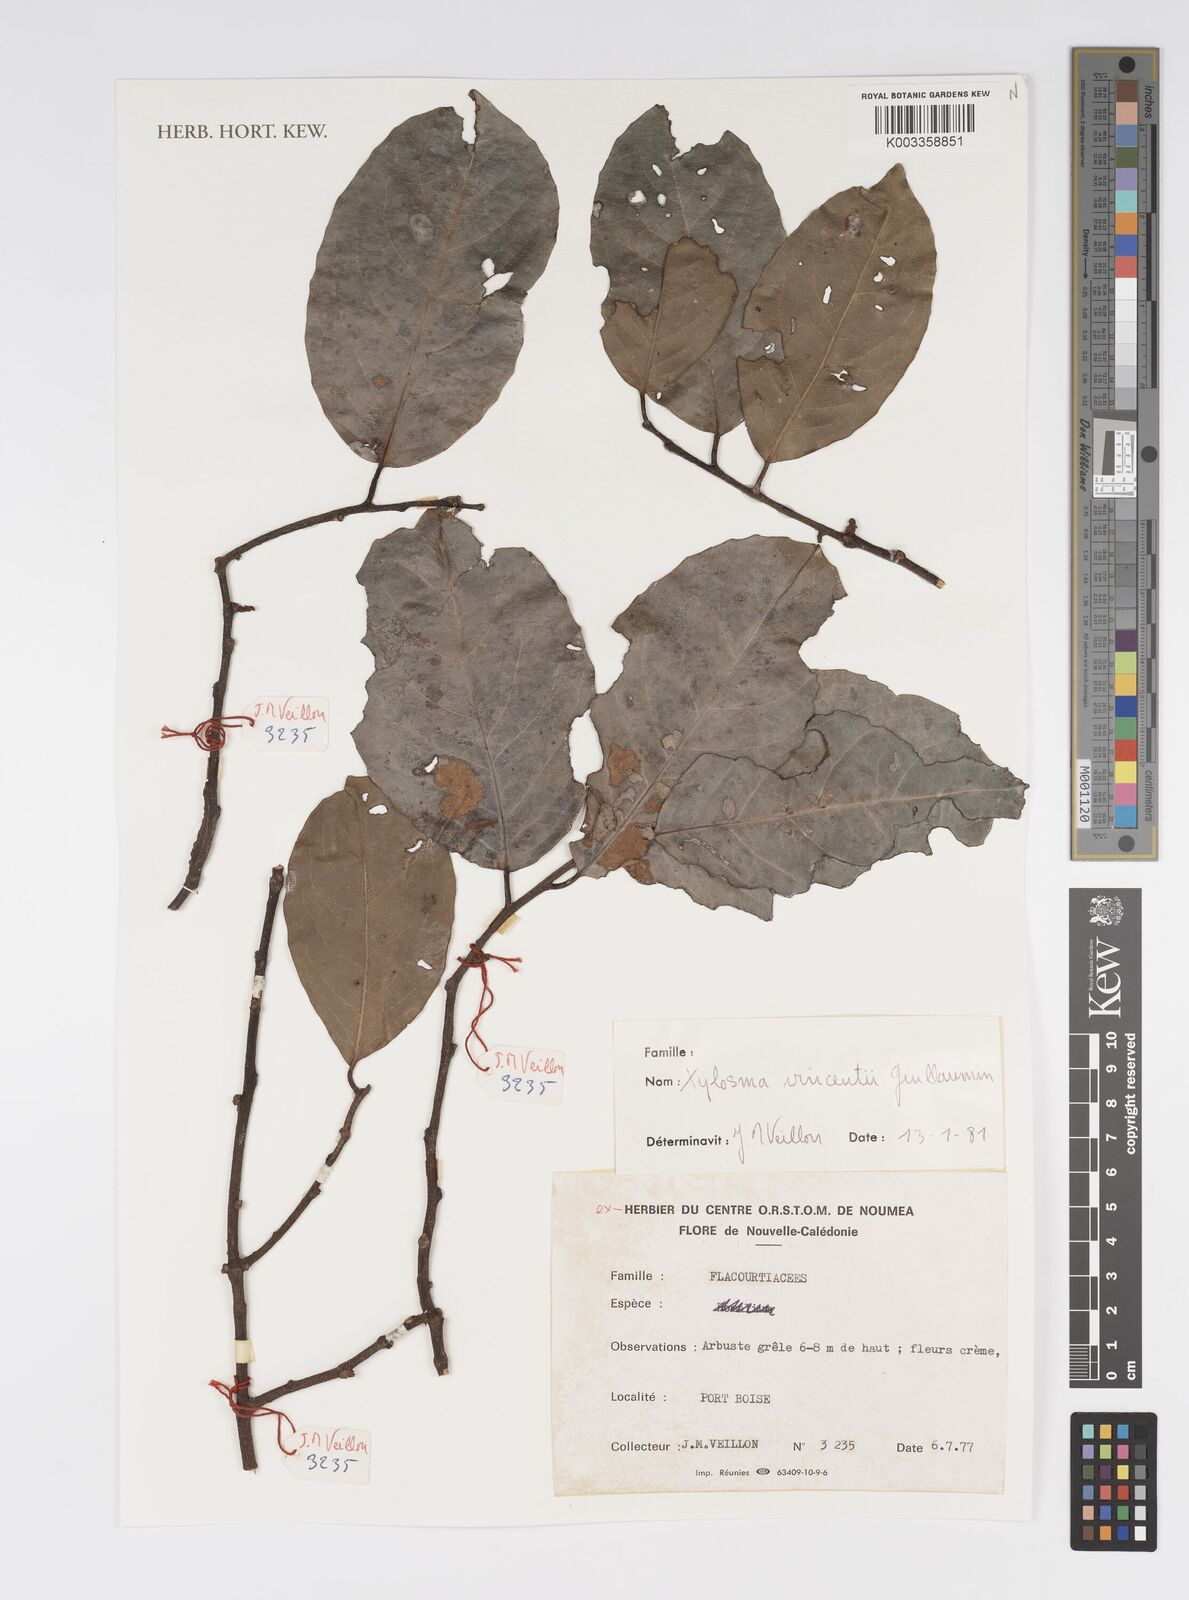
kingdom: Plantae
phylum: Tracheophyta
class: Magnoliopsida
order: Malpighiales
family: Salicaceae
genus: Xylosma
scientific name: Xylosma vincentii
